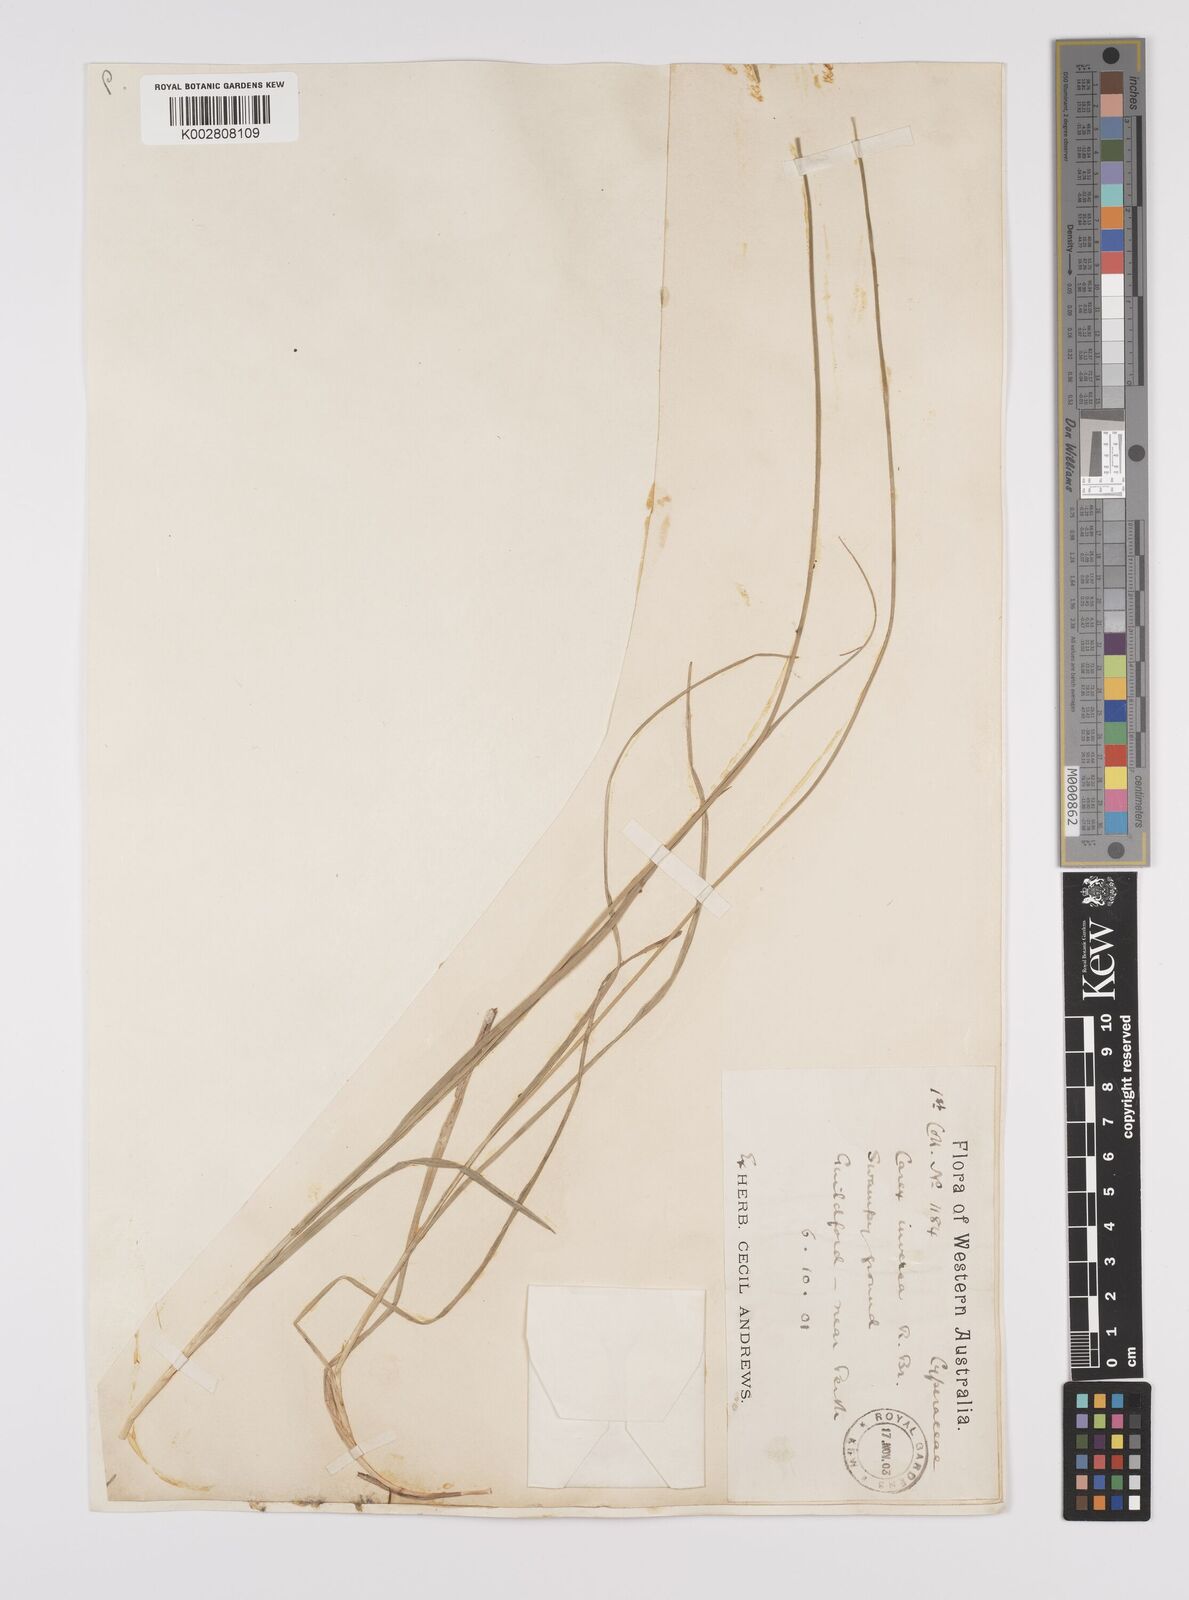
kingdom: Plantae
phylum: Tracheophyta
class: Liliopsida
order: Poales
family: Cyperaceae
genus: Carex
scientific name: Carex inversa
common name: Knob sedge
